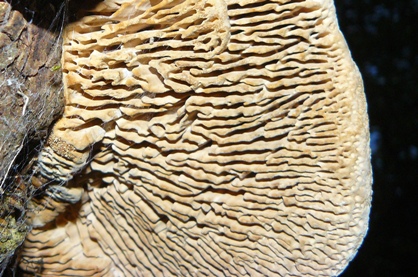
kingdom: Fungi
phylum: Basidiomycota
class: Agaricomycetes
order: Polyporales
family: Fomitopsidaceae
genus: Daedalea
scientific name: Daedalea quercina
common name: ege-labyrintsvamp
